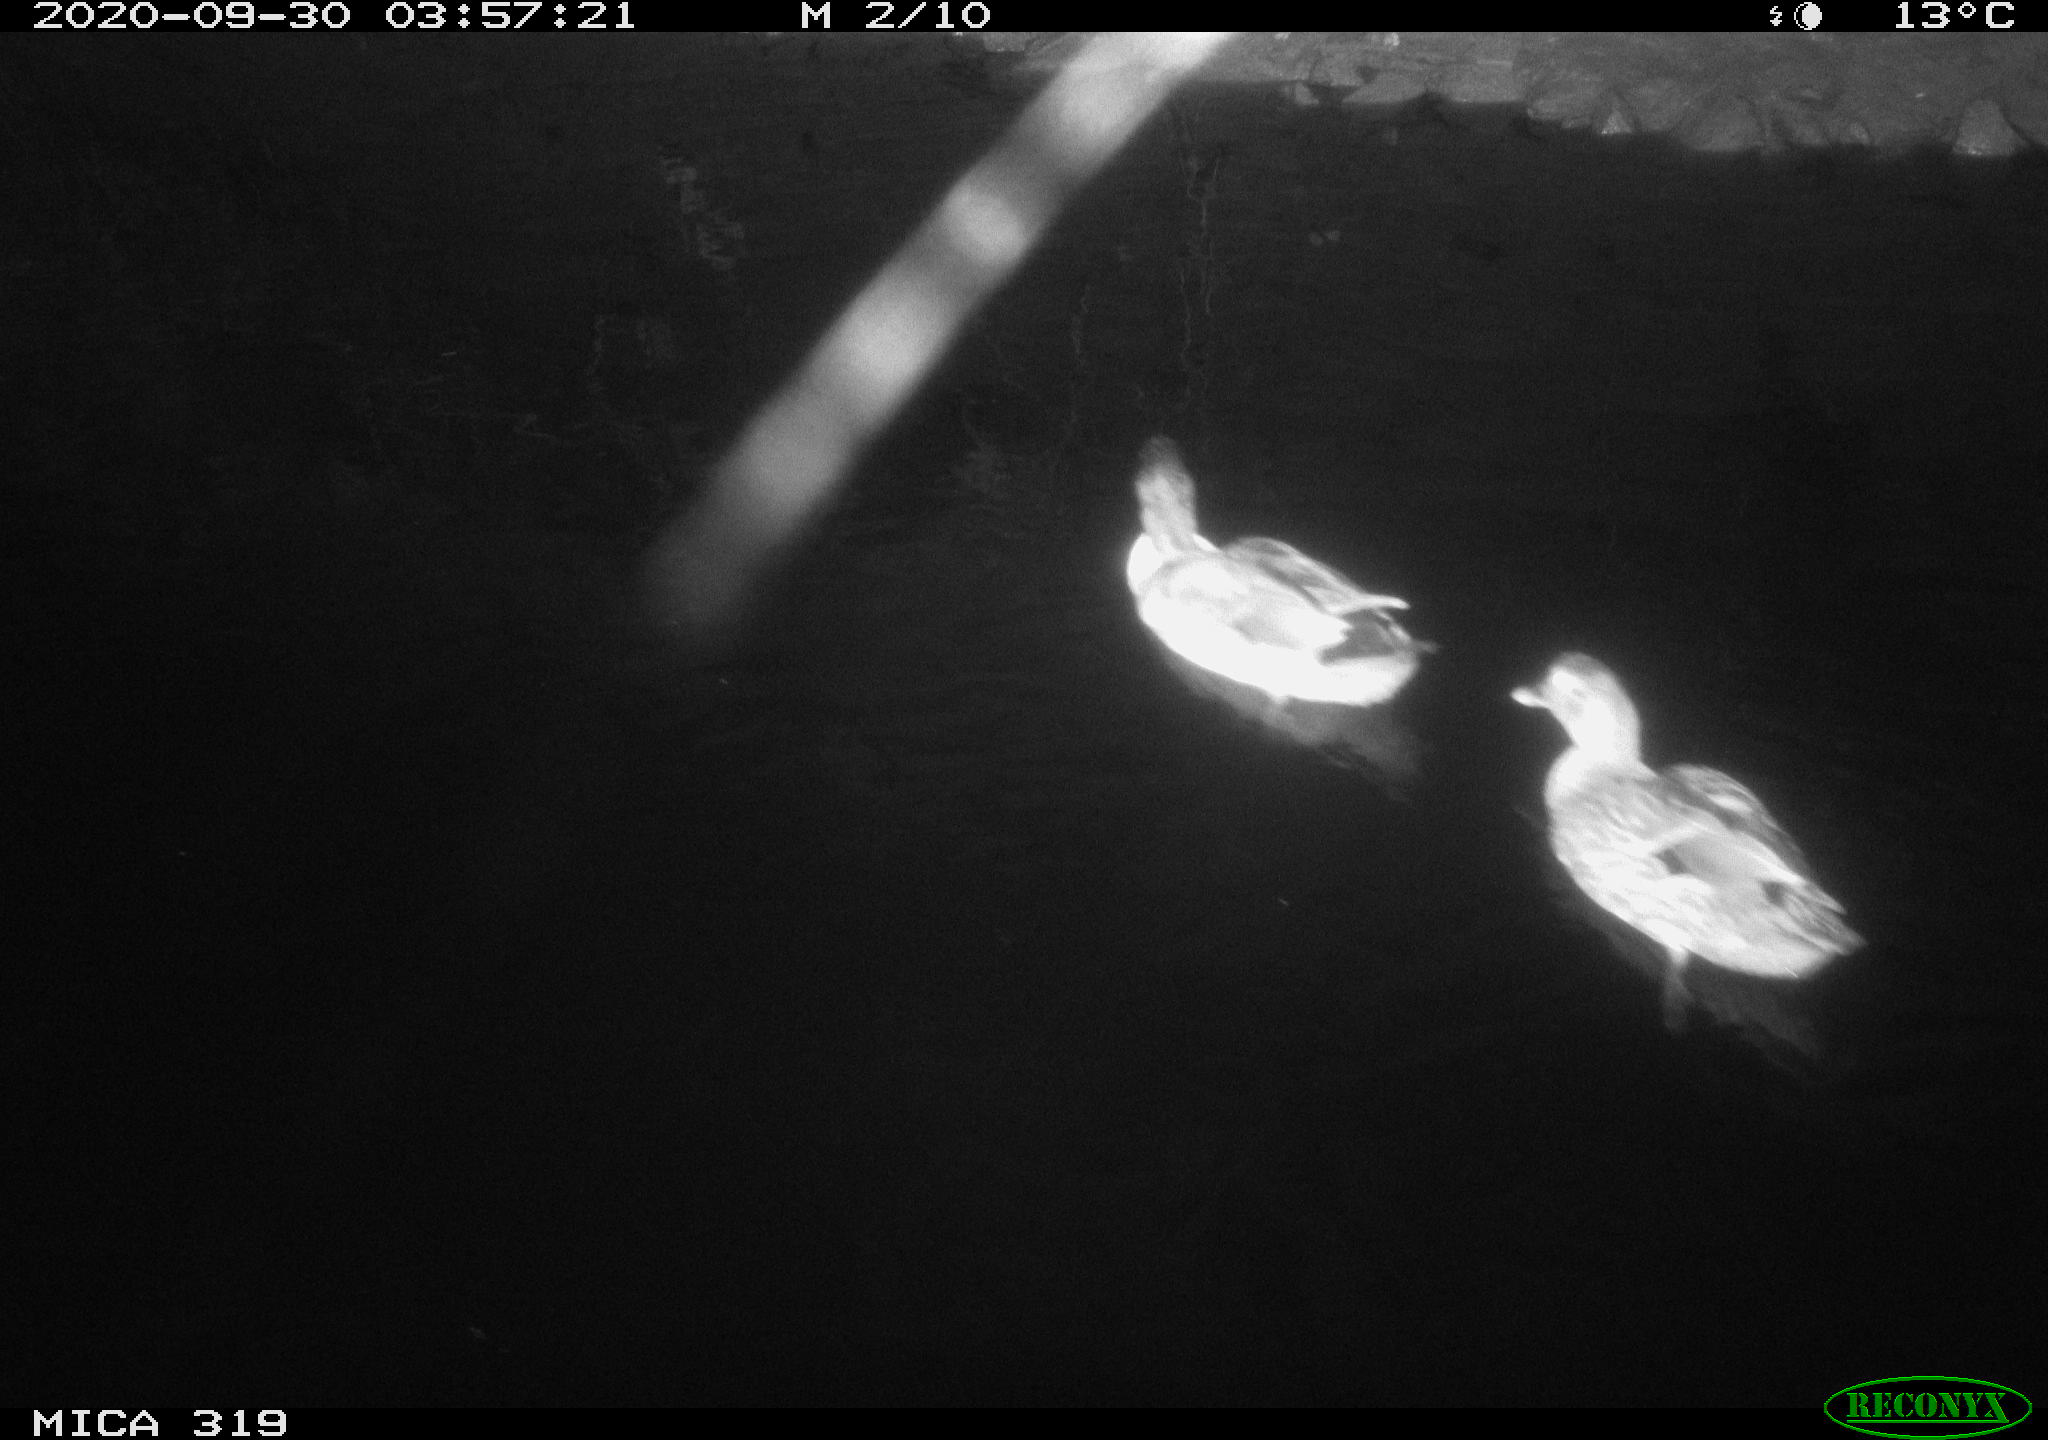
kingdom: Animalia
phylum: Chordata
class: Aves
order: Anseriformes
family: Anatidae
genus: Anas
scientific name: Anas platyrhynchos
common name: Mallard
